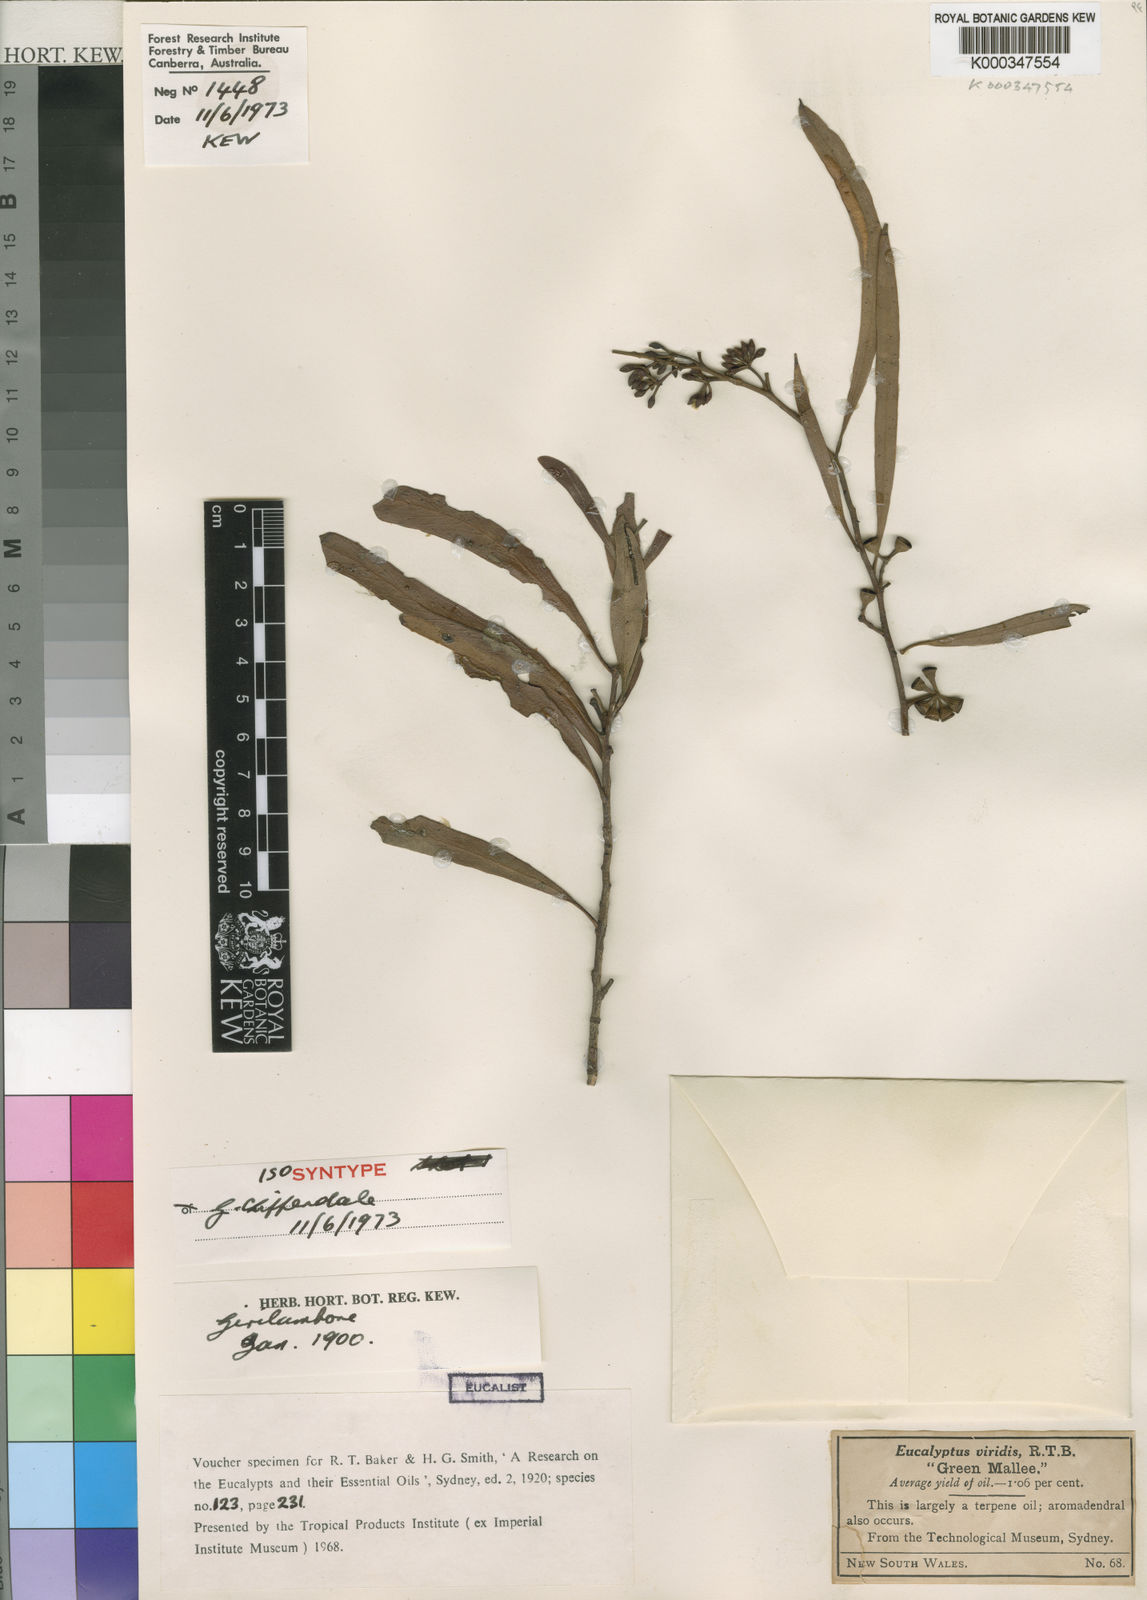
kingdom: Plantae
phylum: Tracheophyta
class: Magnoliopsida
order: Myrtales
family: Myrtaceae
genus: Eucalyptus
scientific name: Eucalyptus viridis
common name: Green mallee
